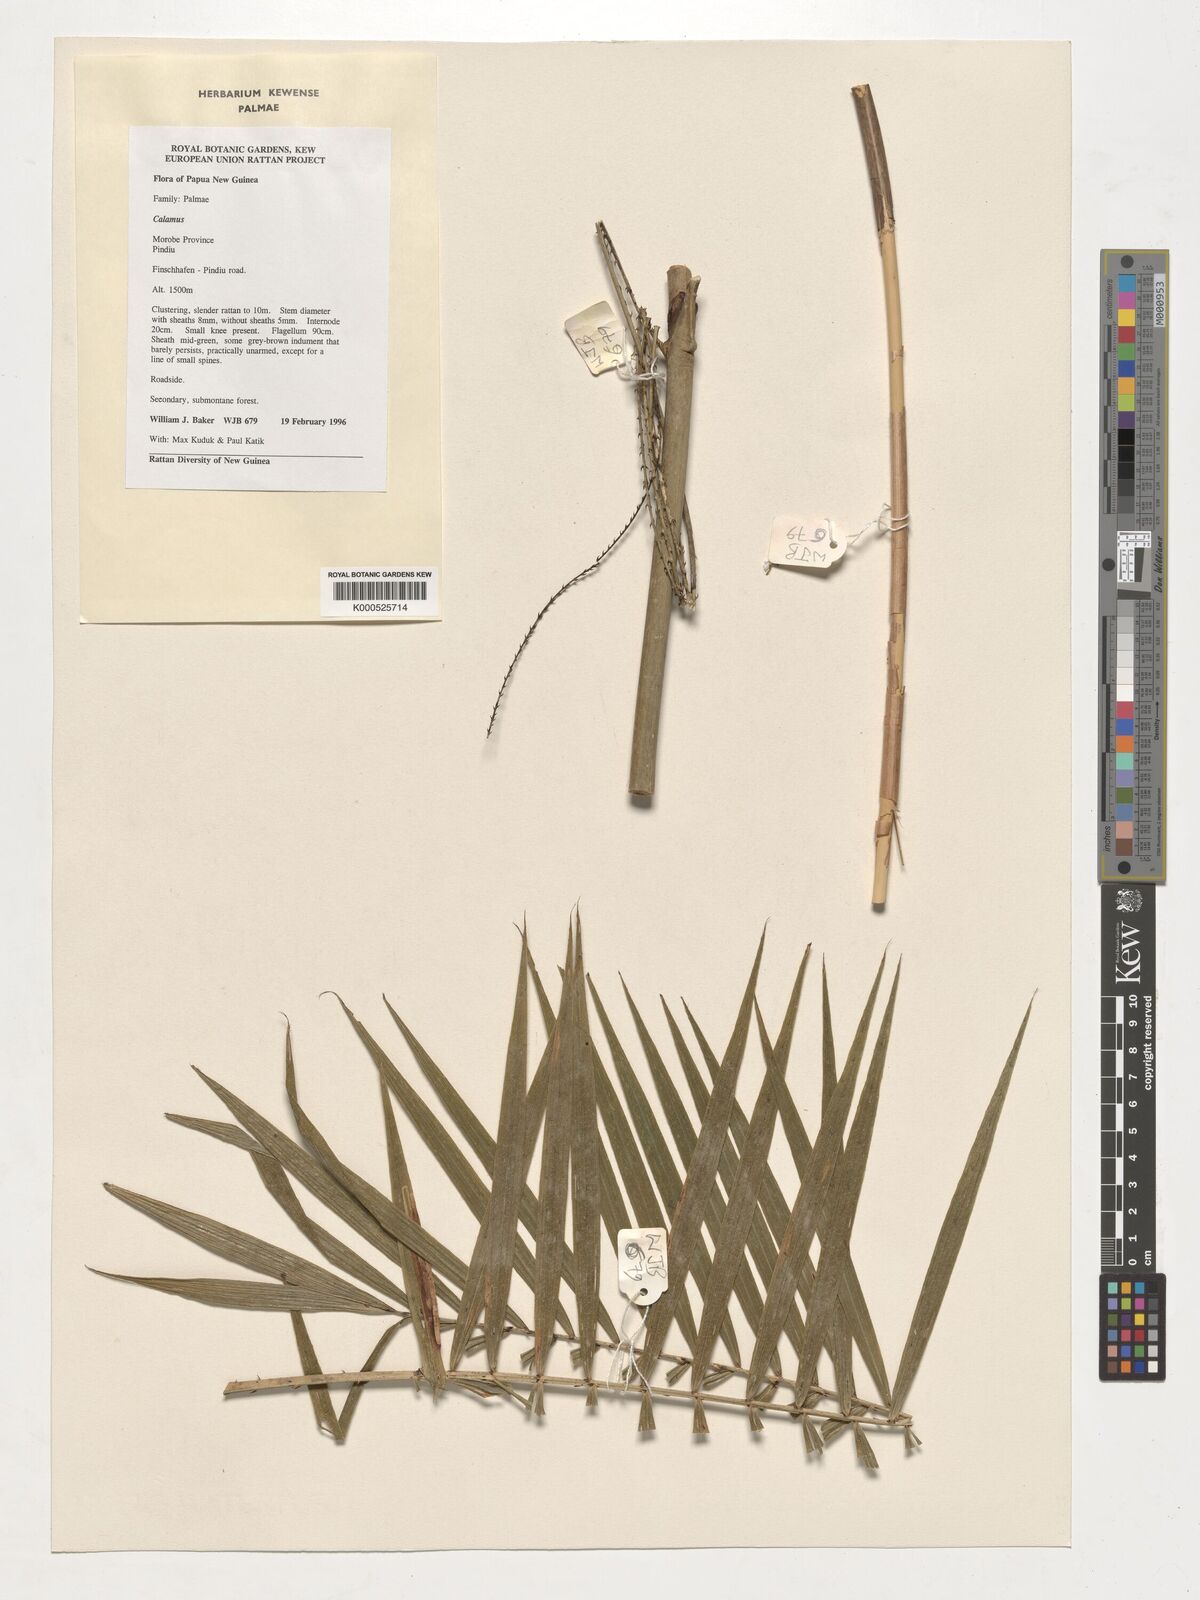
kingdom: Plantae
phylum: Tracheophyta
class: Liliopsida
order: Arecales
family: Arecaceae
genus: Calamus
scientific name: Calamus
